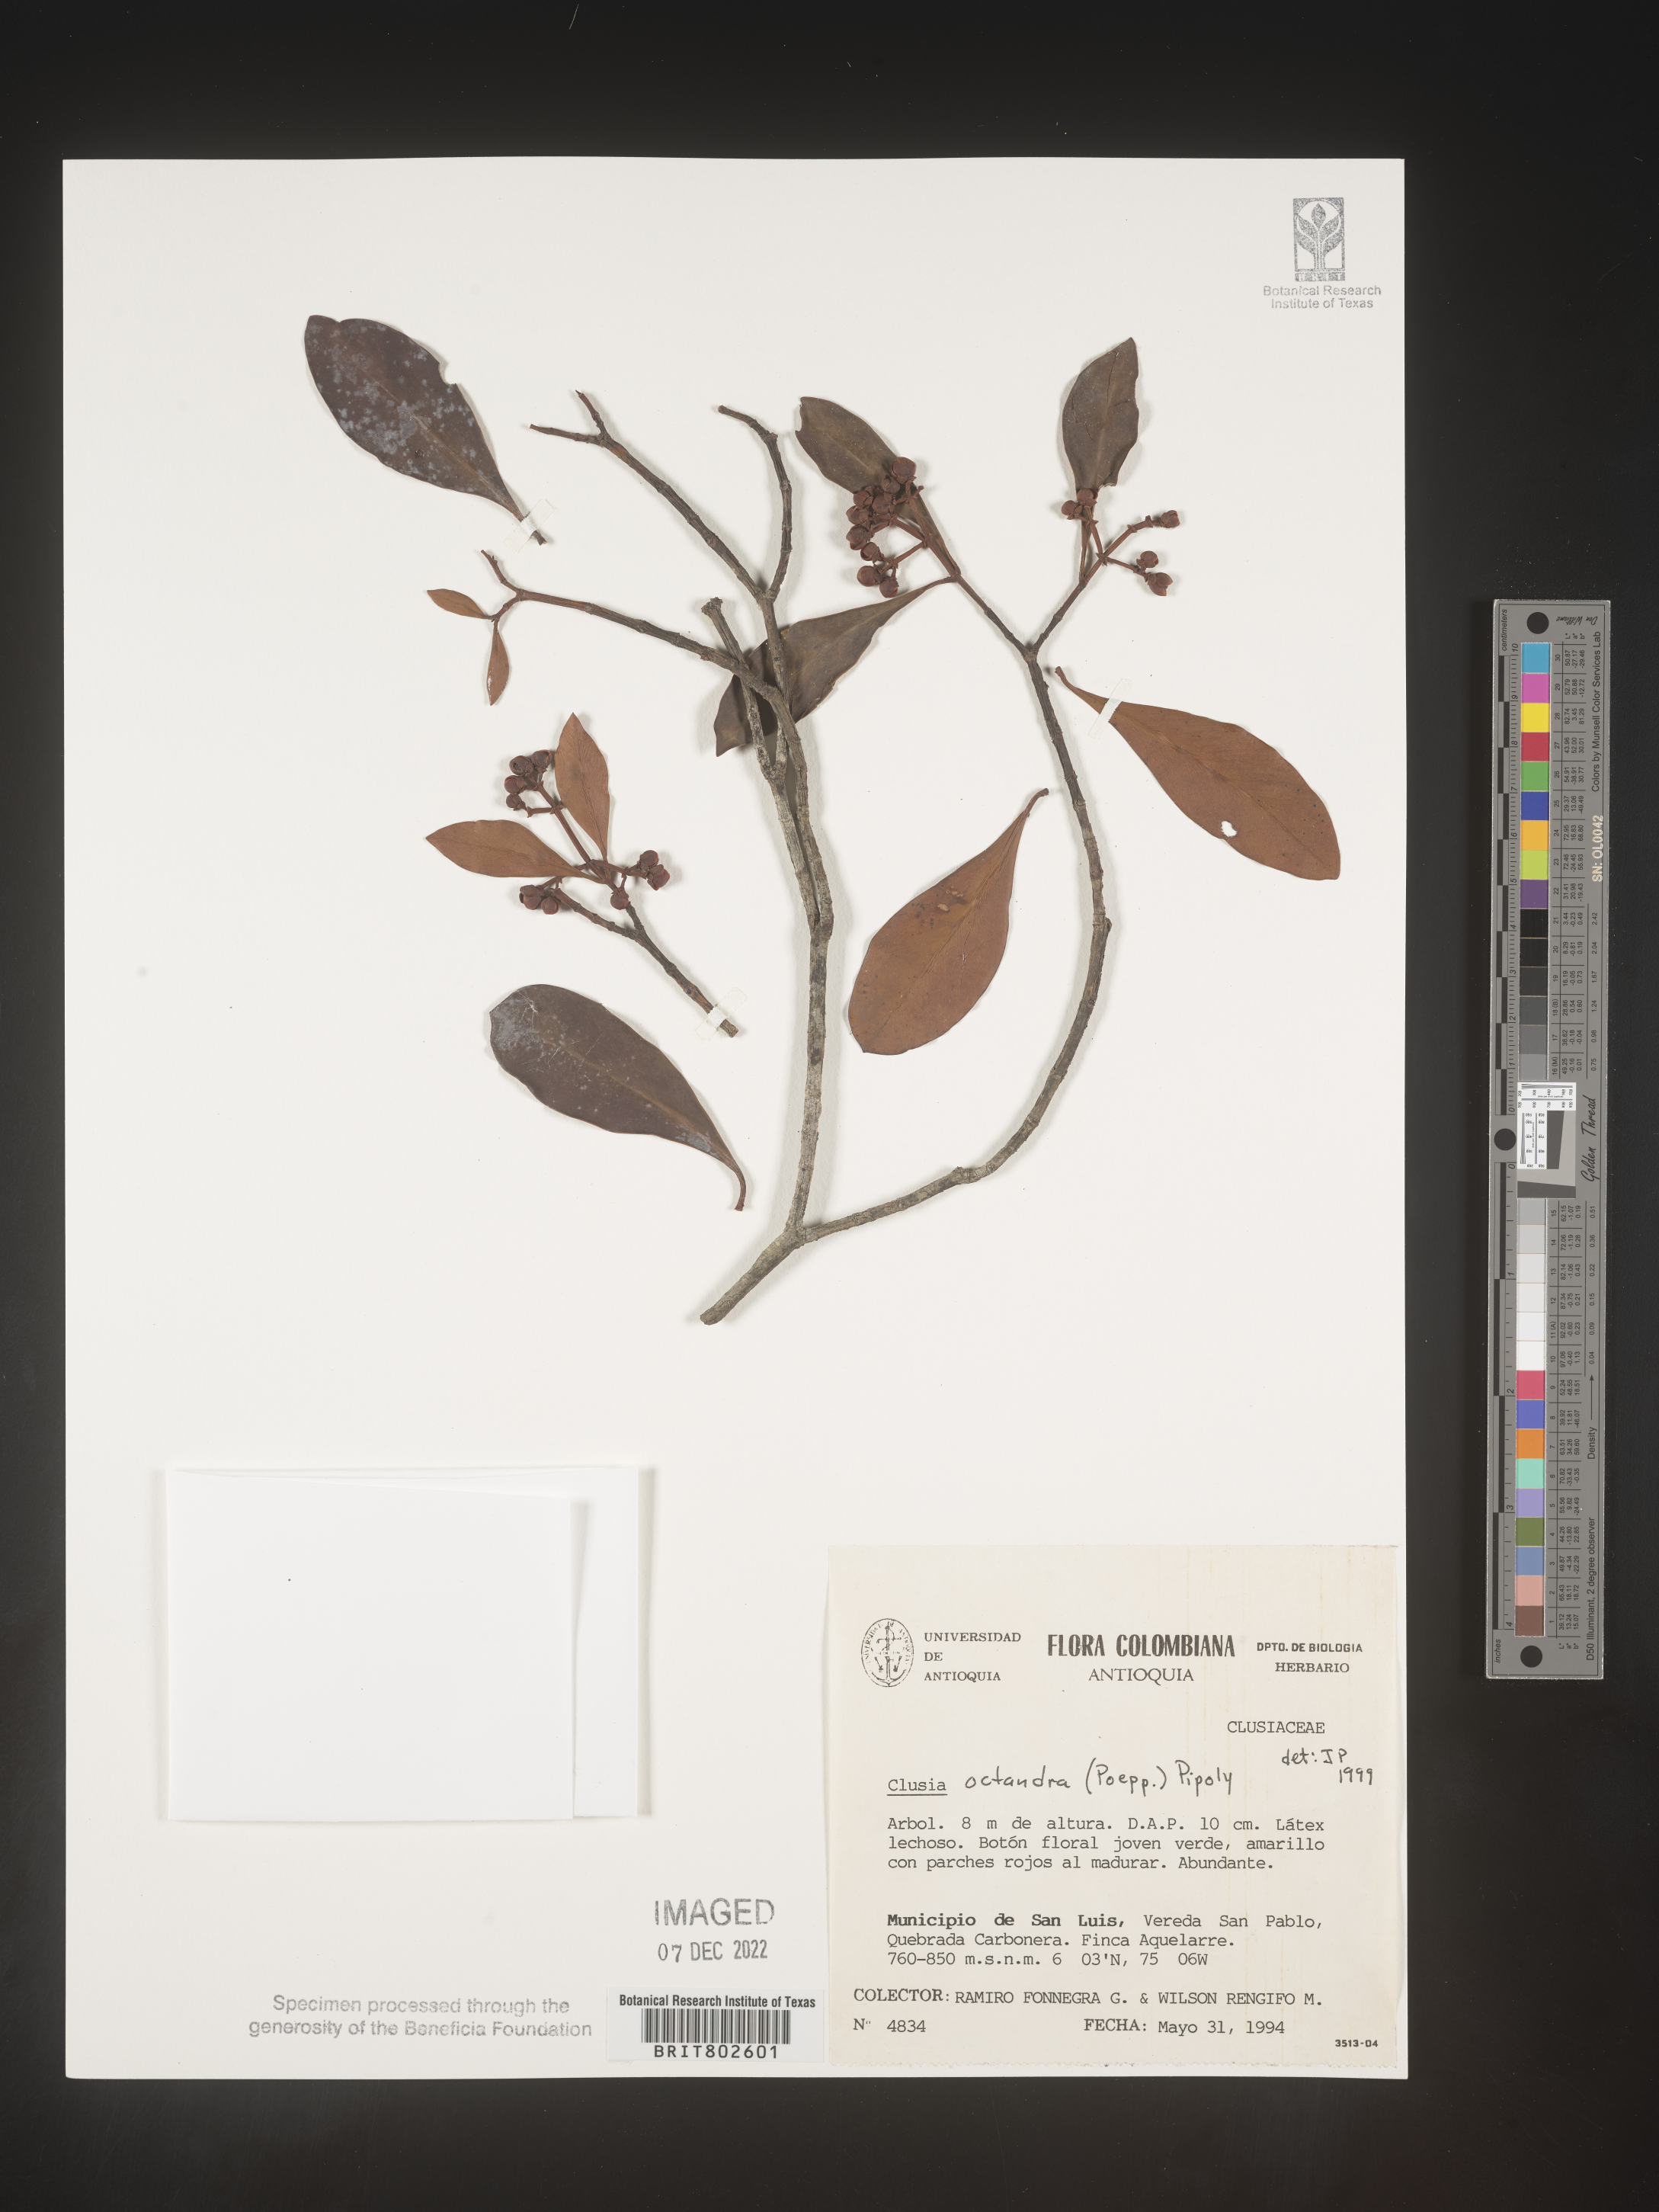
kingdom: Plantae
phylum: Tracheophyta
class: Magnoliopsida
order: Malpighiales
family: Clusiaceae
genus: Clusia
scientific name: Clusia
